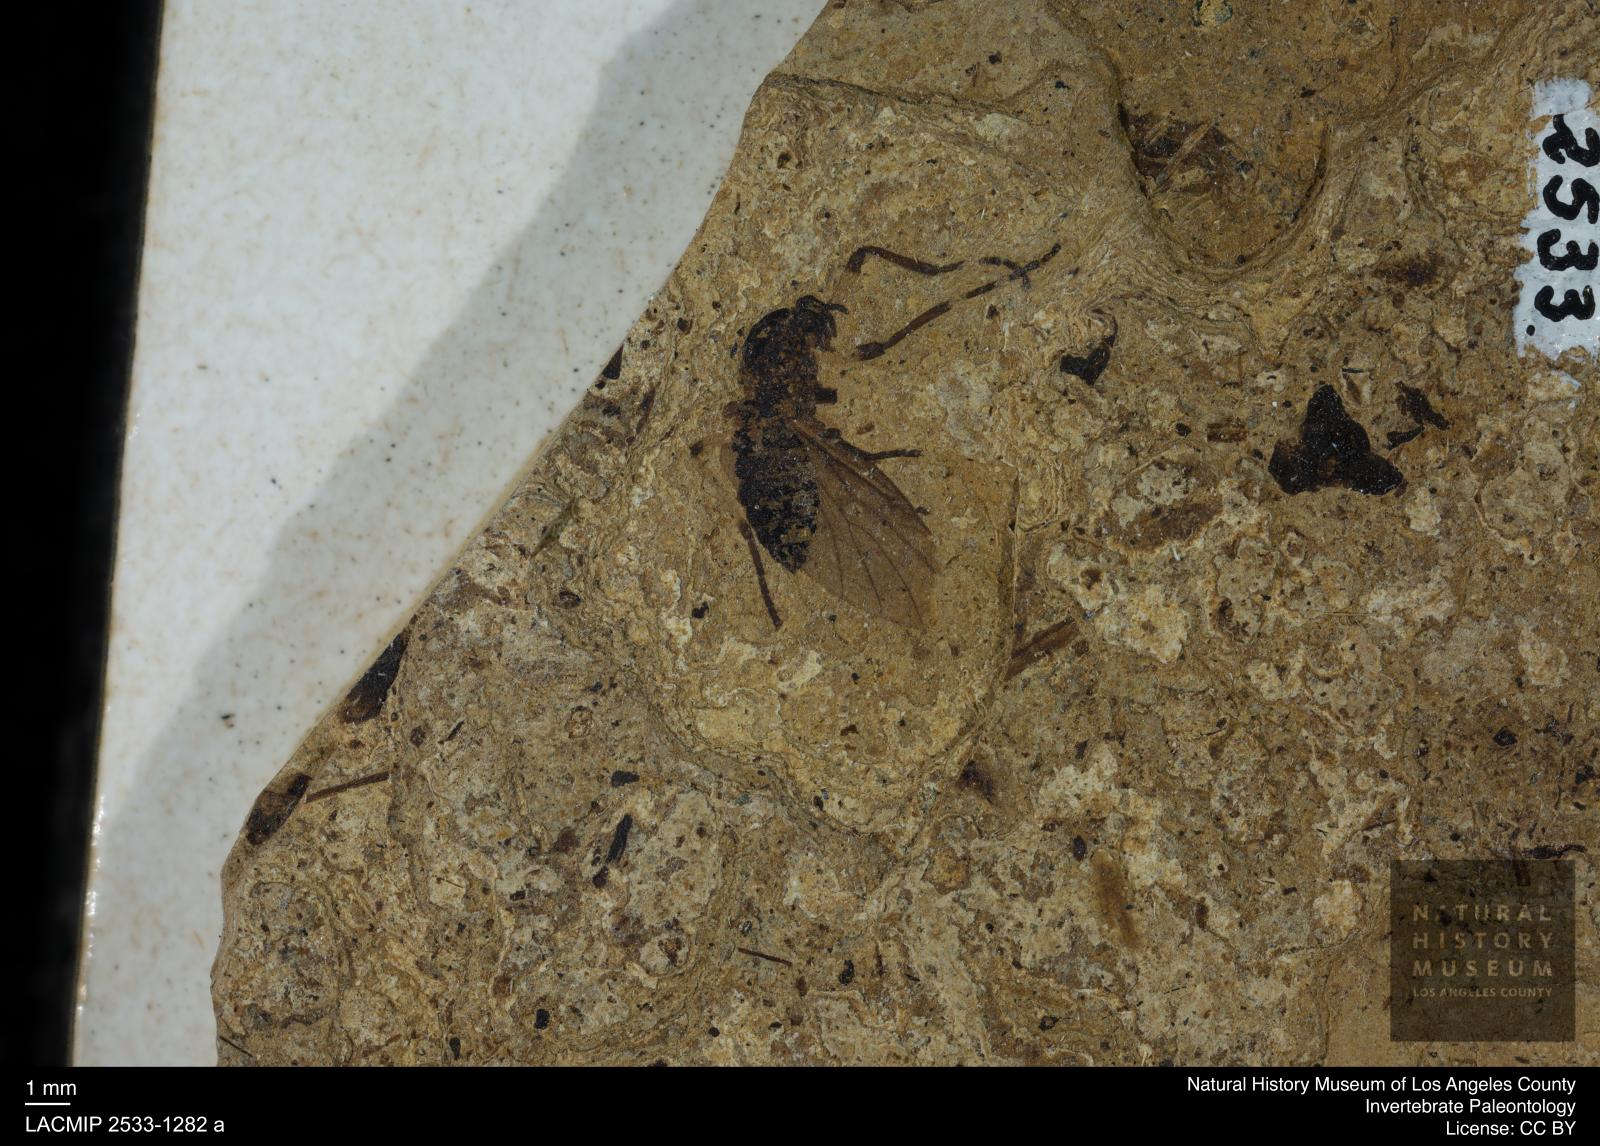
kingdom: Animalia
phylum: Arthropoda
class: Insecta
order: Diptera
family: Bibionidae
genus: Plecia
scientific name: Plecia stygia
